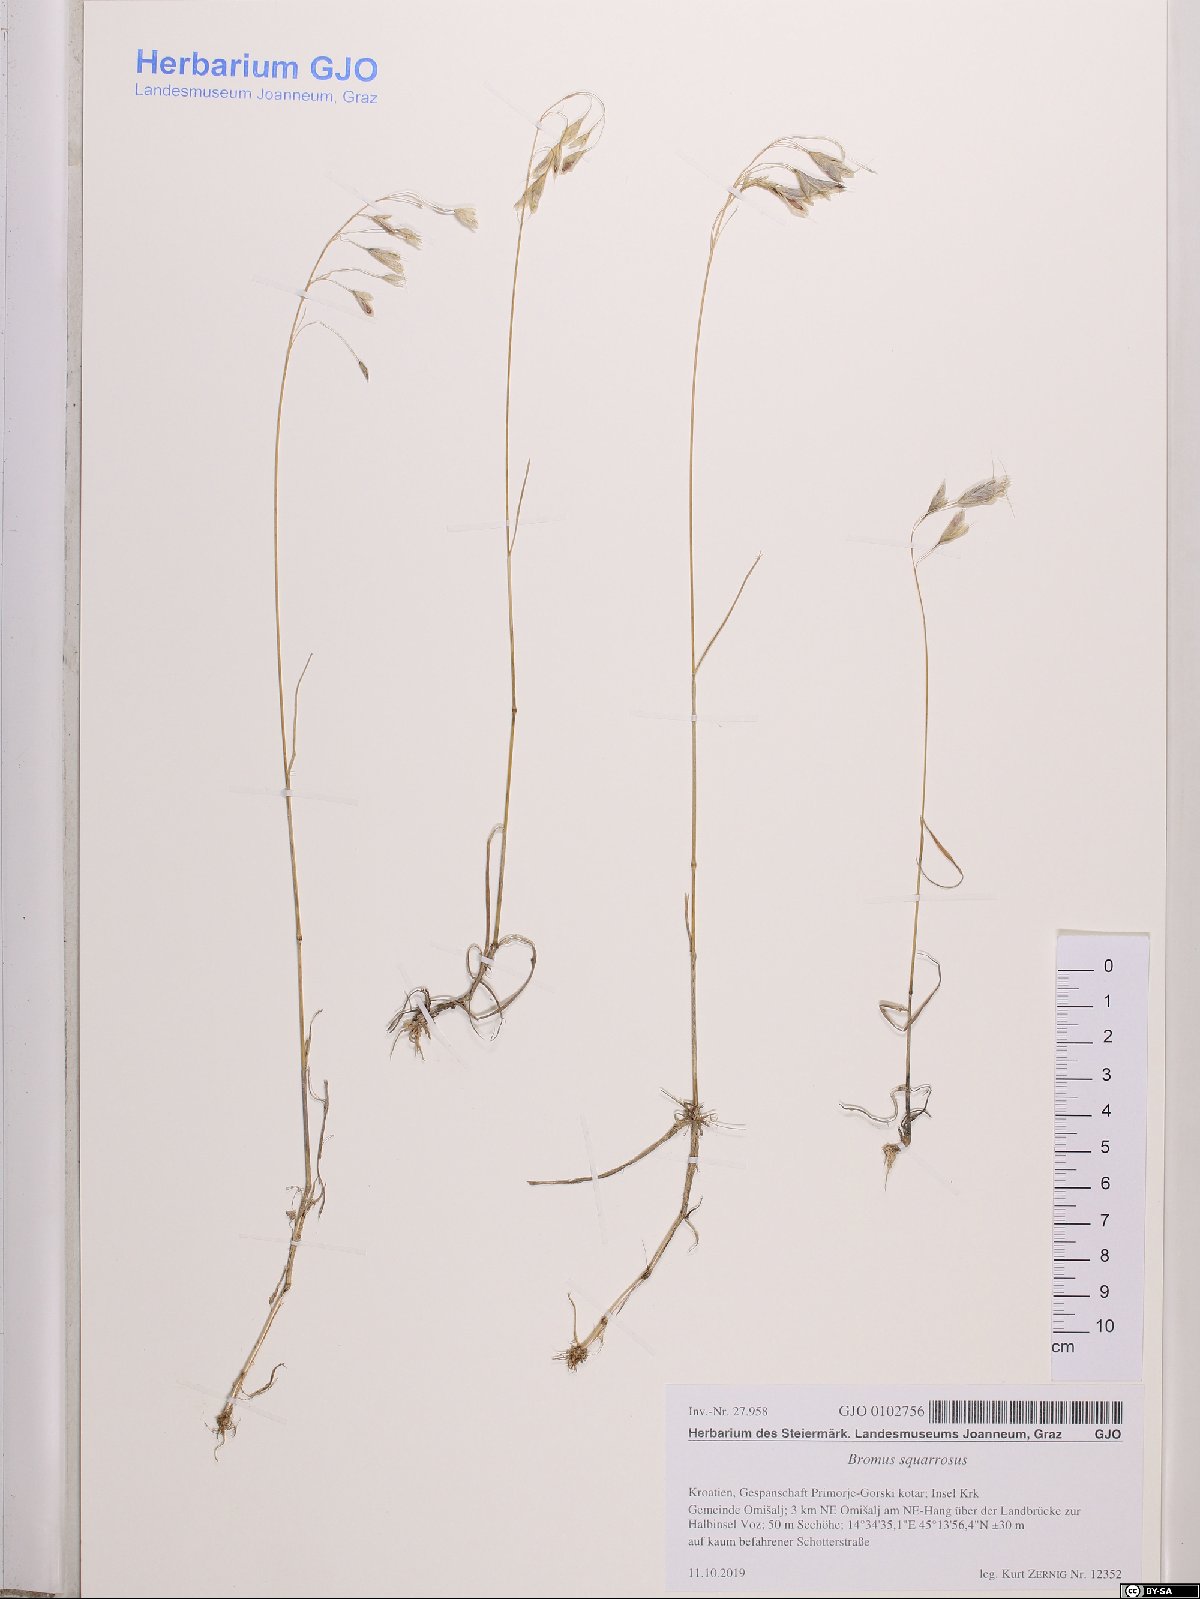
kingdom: Plantae
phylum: Tracheophyta
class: Liliopsida
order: Poales
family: Poaceae
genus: Bromus
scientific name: Bromus squarrosus
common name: Corn brome
